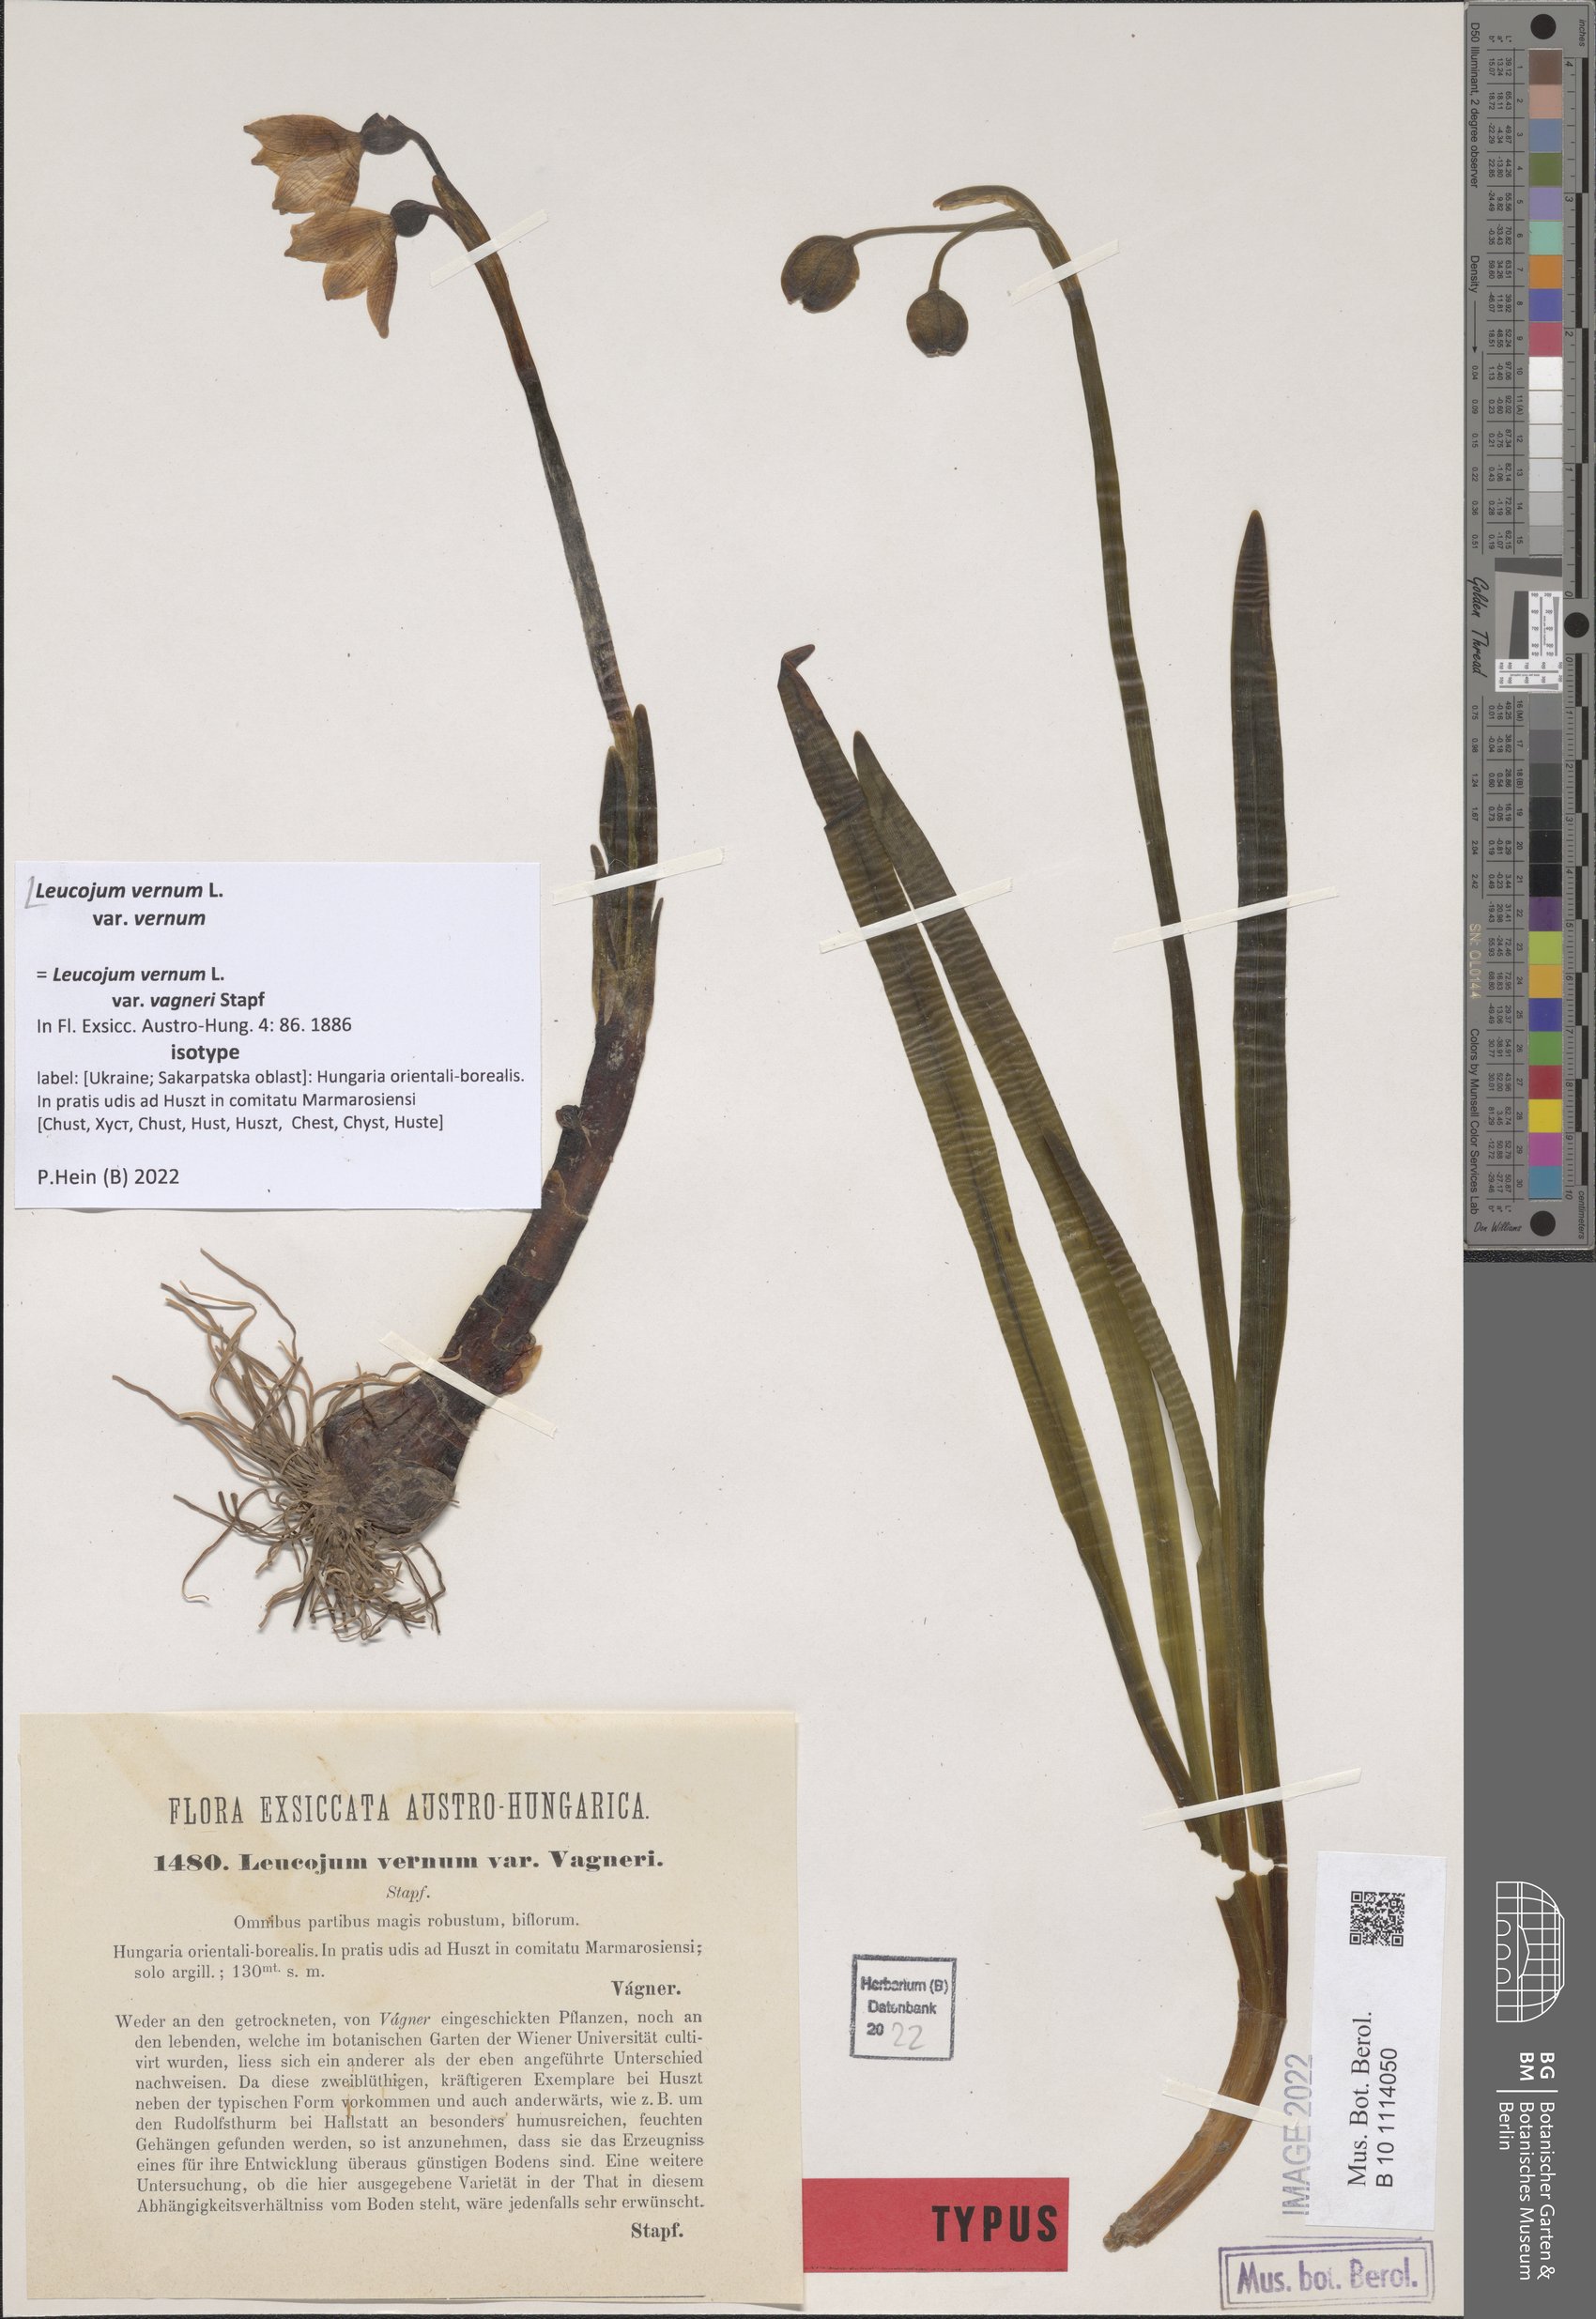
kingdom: Plantae
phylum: Tracheophyta
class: Liliopsida
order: Asparagales
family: Amaryllidaceae
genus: Leucojum
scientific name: Leucojum vernum
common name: Spring snowflake
